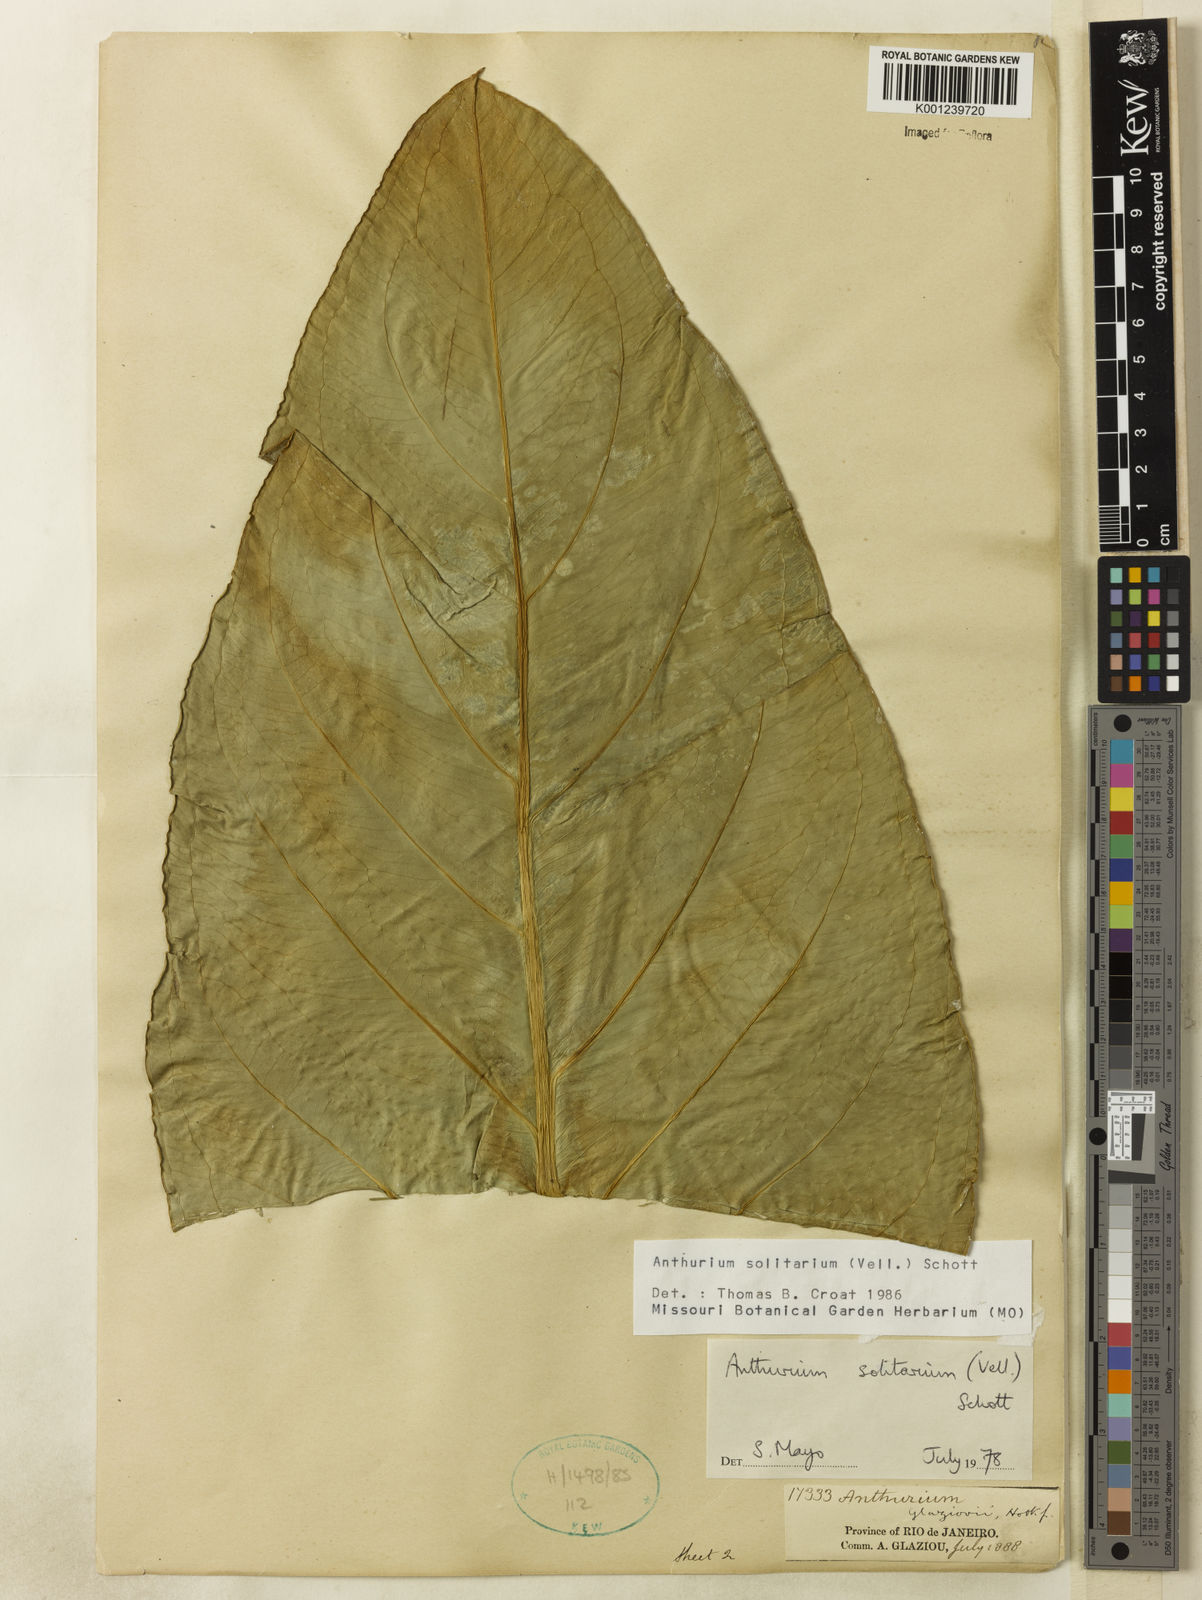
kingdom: Plantae
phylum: Tracheophyta
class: Liliopsida
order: Alismatales
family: Araceae
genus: Anthurium
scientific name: Anthurium solitarium
